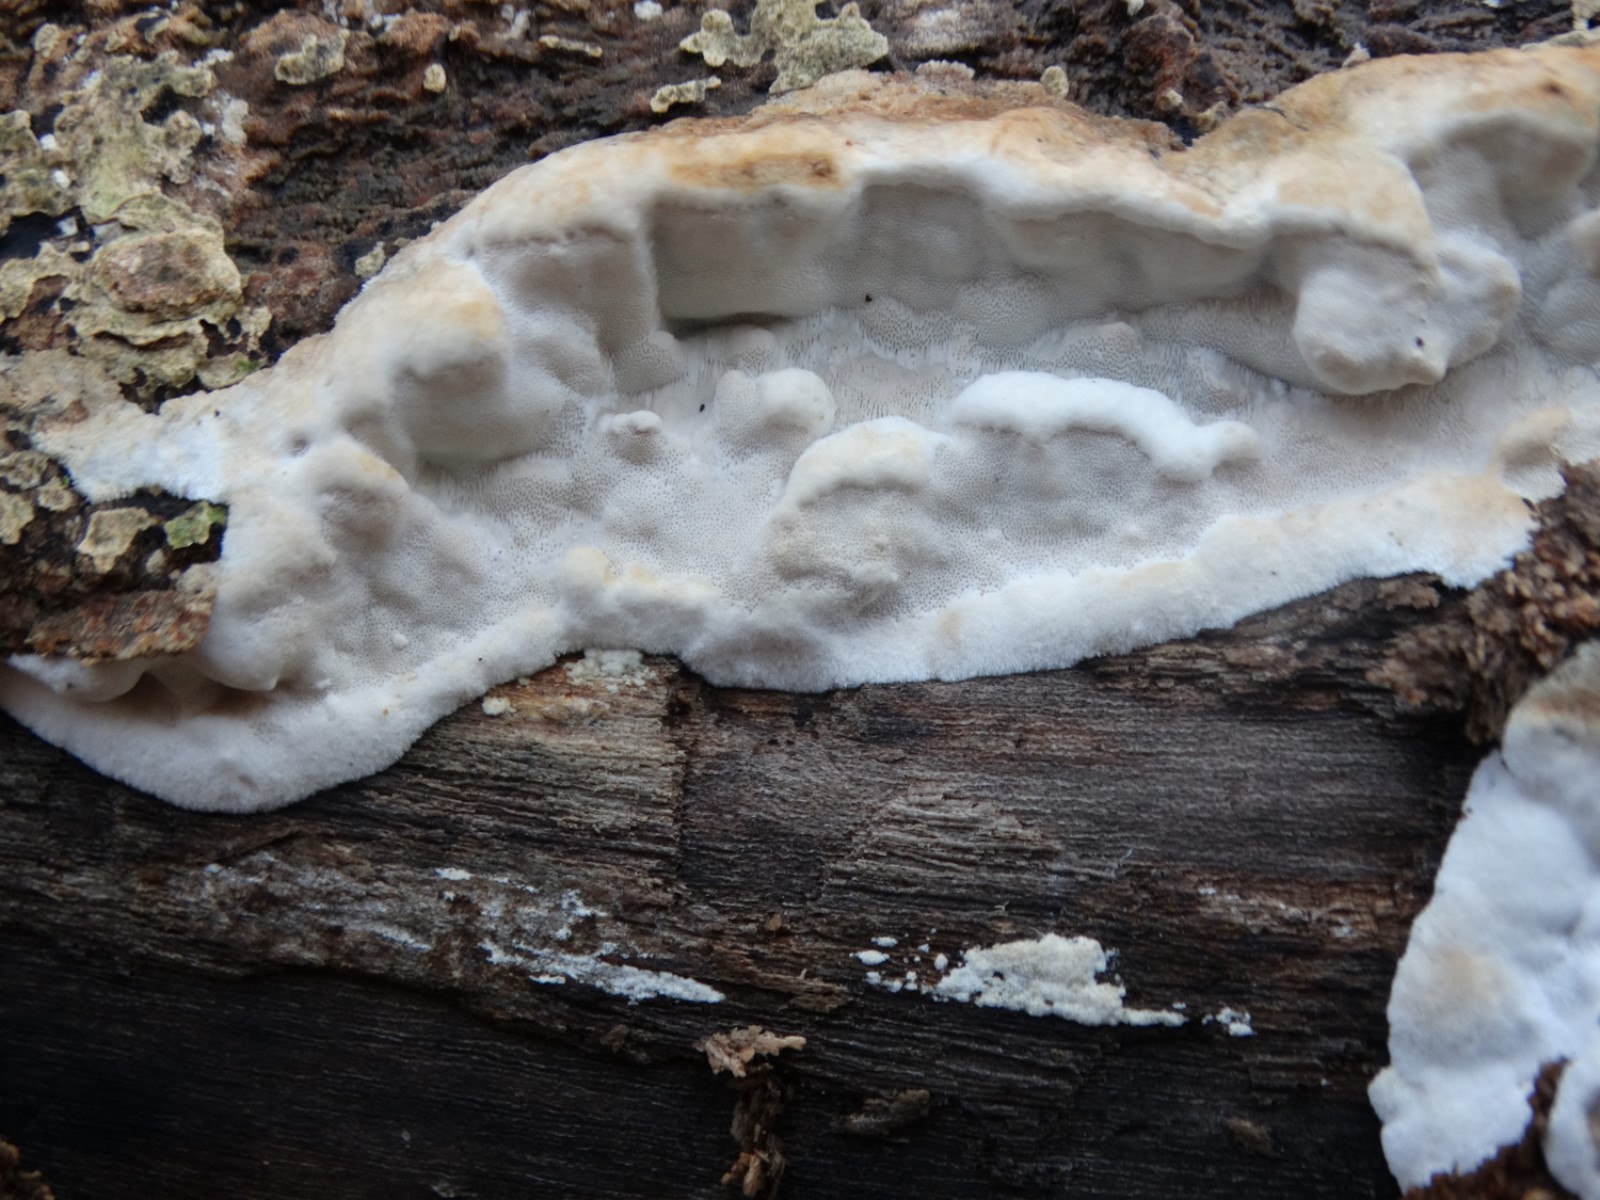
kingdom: Fungi
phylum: Basidiomycota
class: Agaricomycetes
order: Polyporales
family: Incrustoporiaceae
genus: Skeletocutis
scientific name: Skeletocutis nemoralis
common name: stor krystalporesvamp
